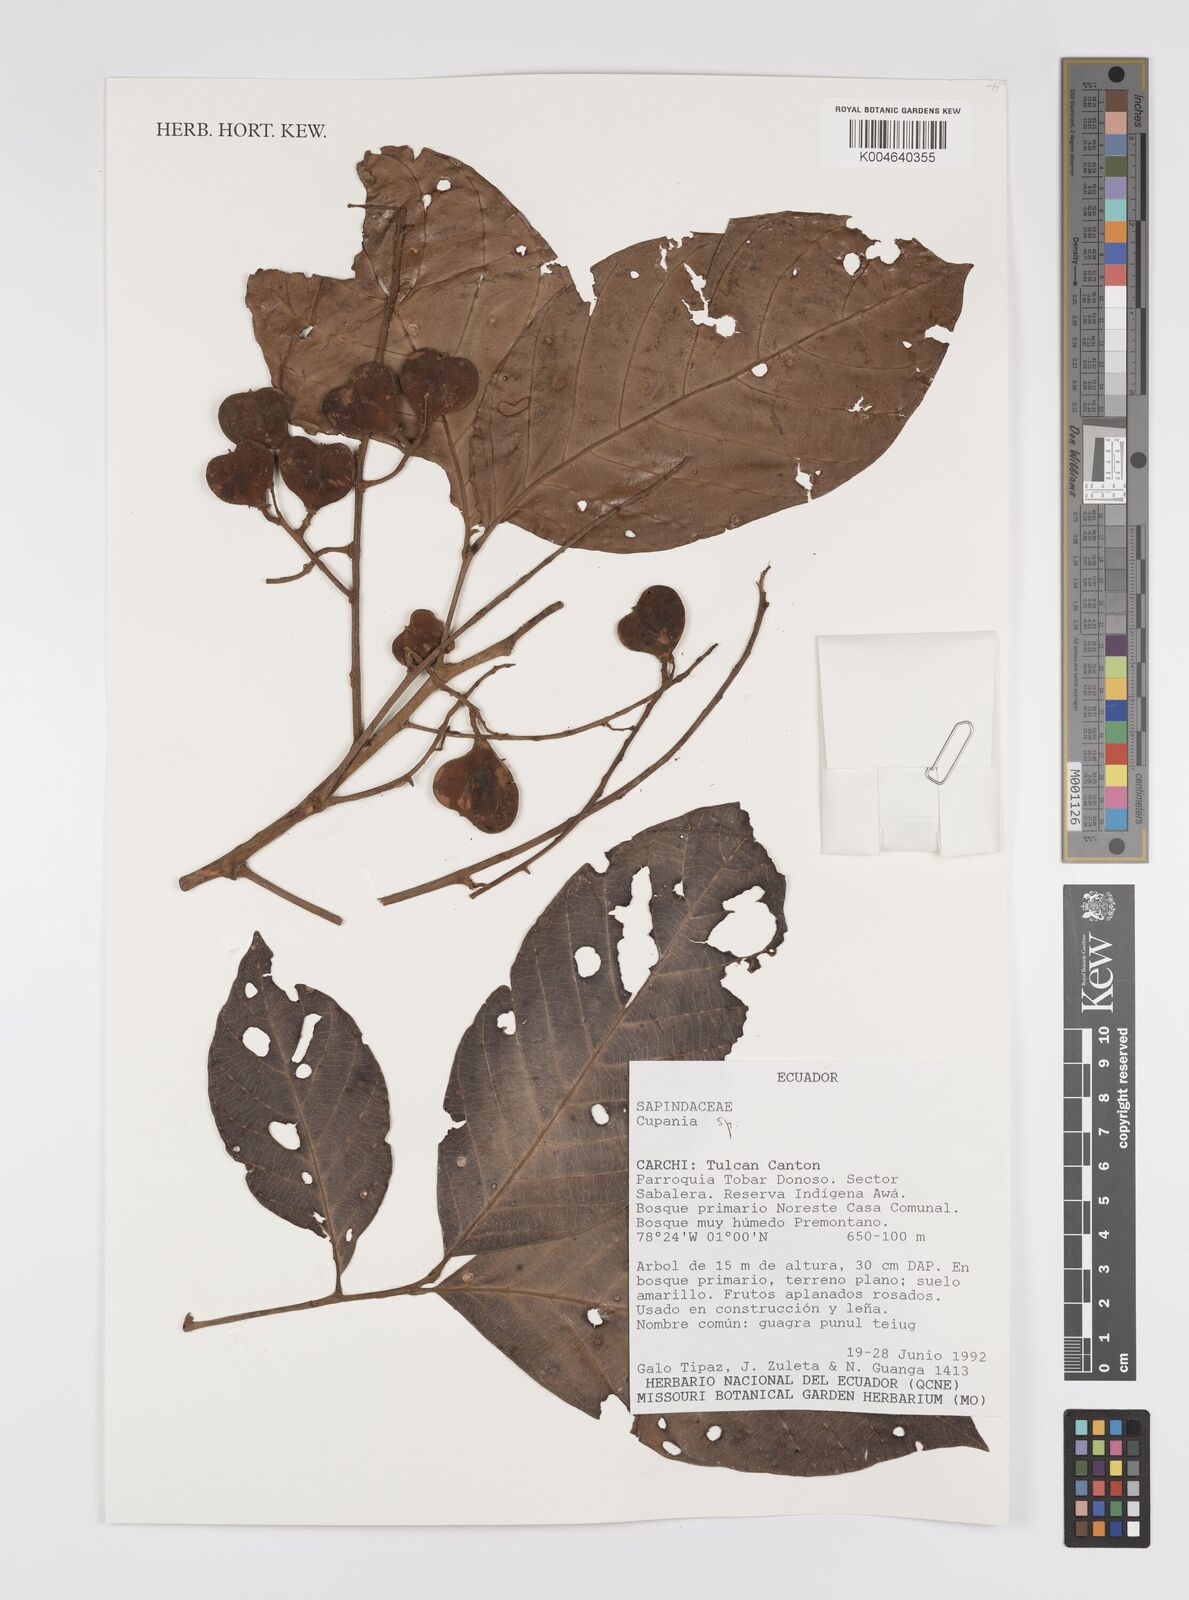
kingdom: Plantae
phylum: Tracheophyta
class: Magnoliopsida
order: Sapindales
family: Sapindaceae
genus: Cupania
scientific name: Cupania
